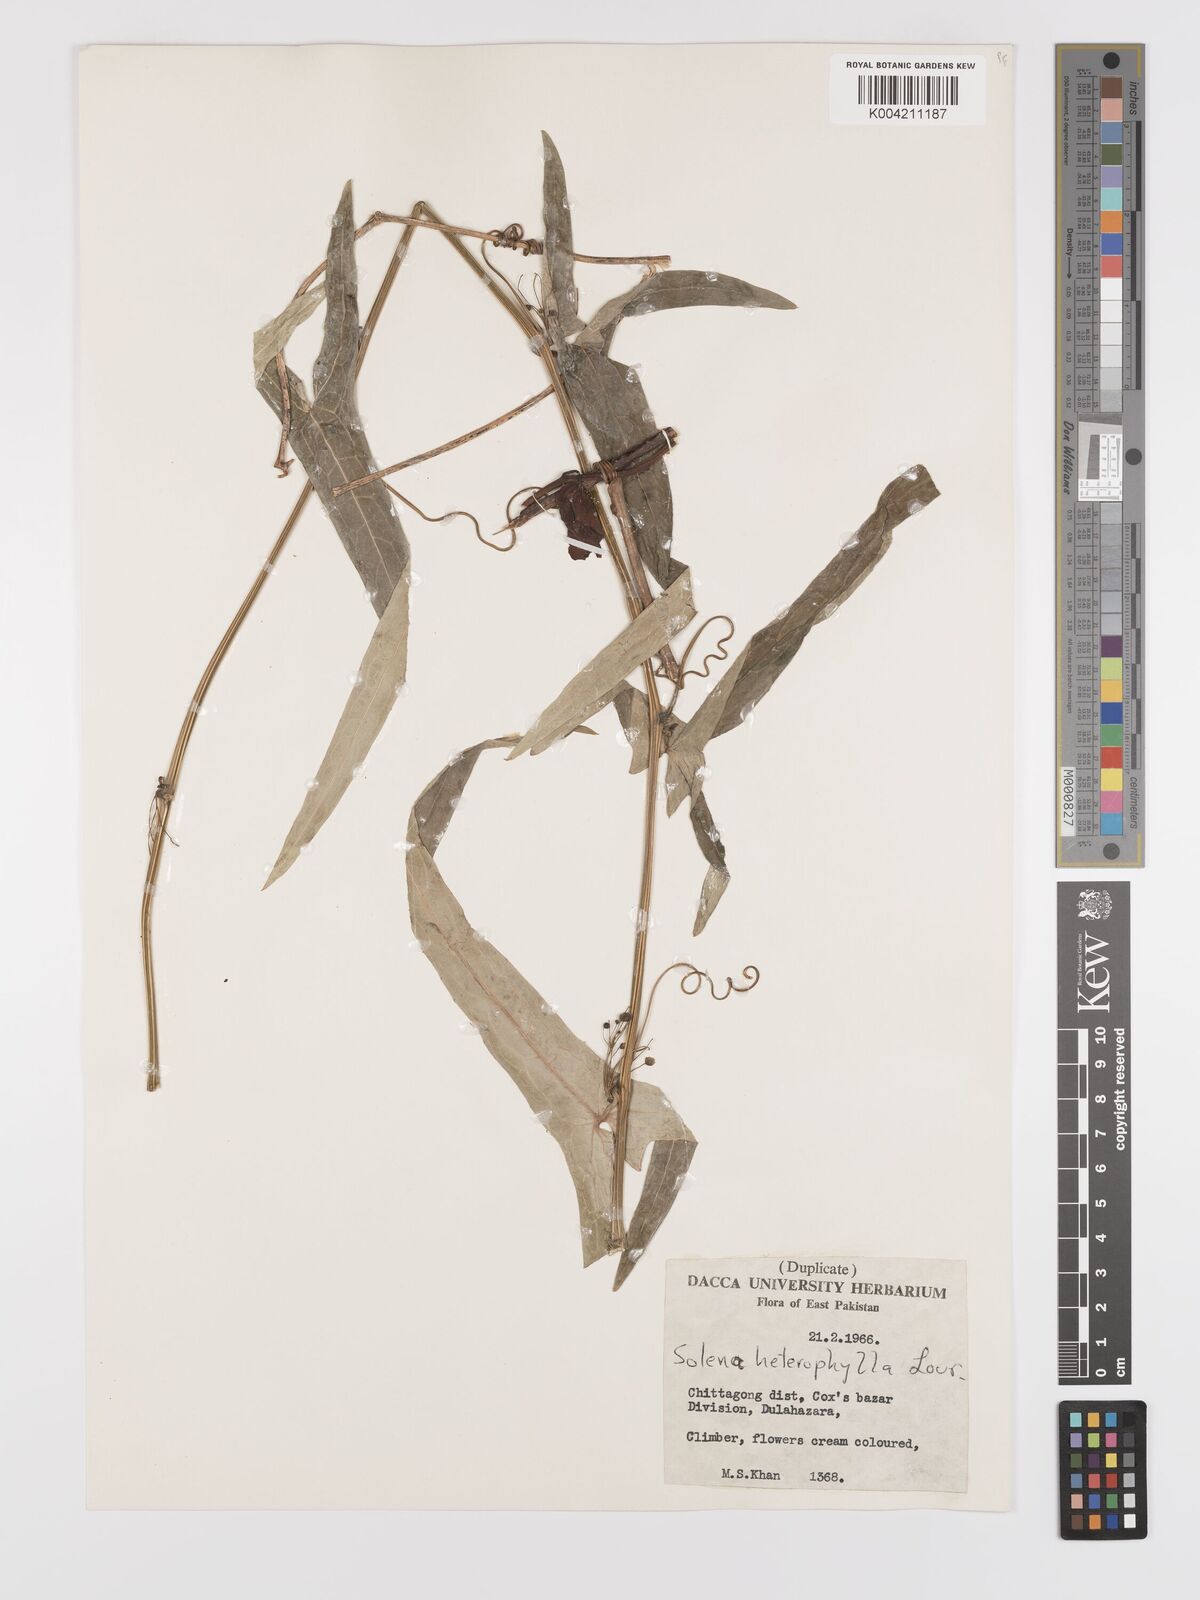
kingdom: Plantae
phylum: Tracheophyta
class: Magnoliopsida
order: Cucurbitales
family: Cucurbitaceae
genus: Solena
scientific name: Solena amplexicaulis
